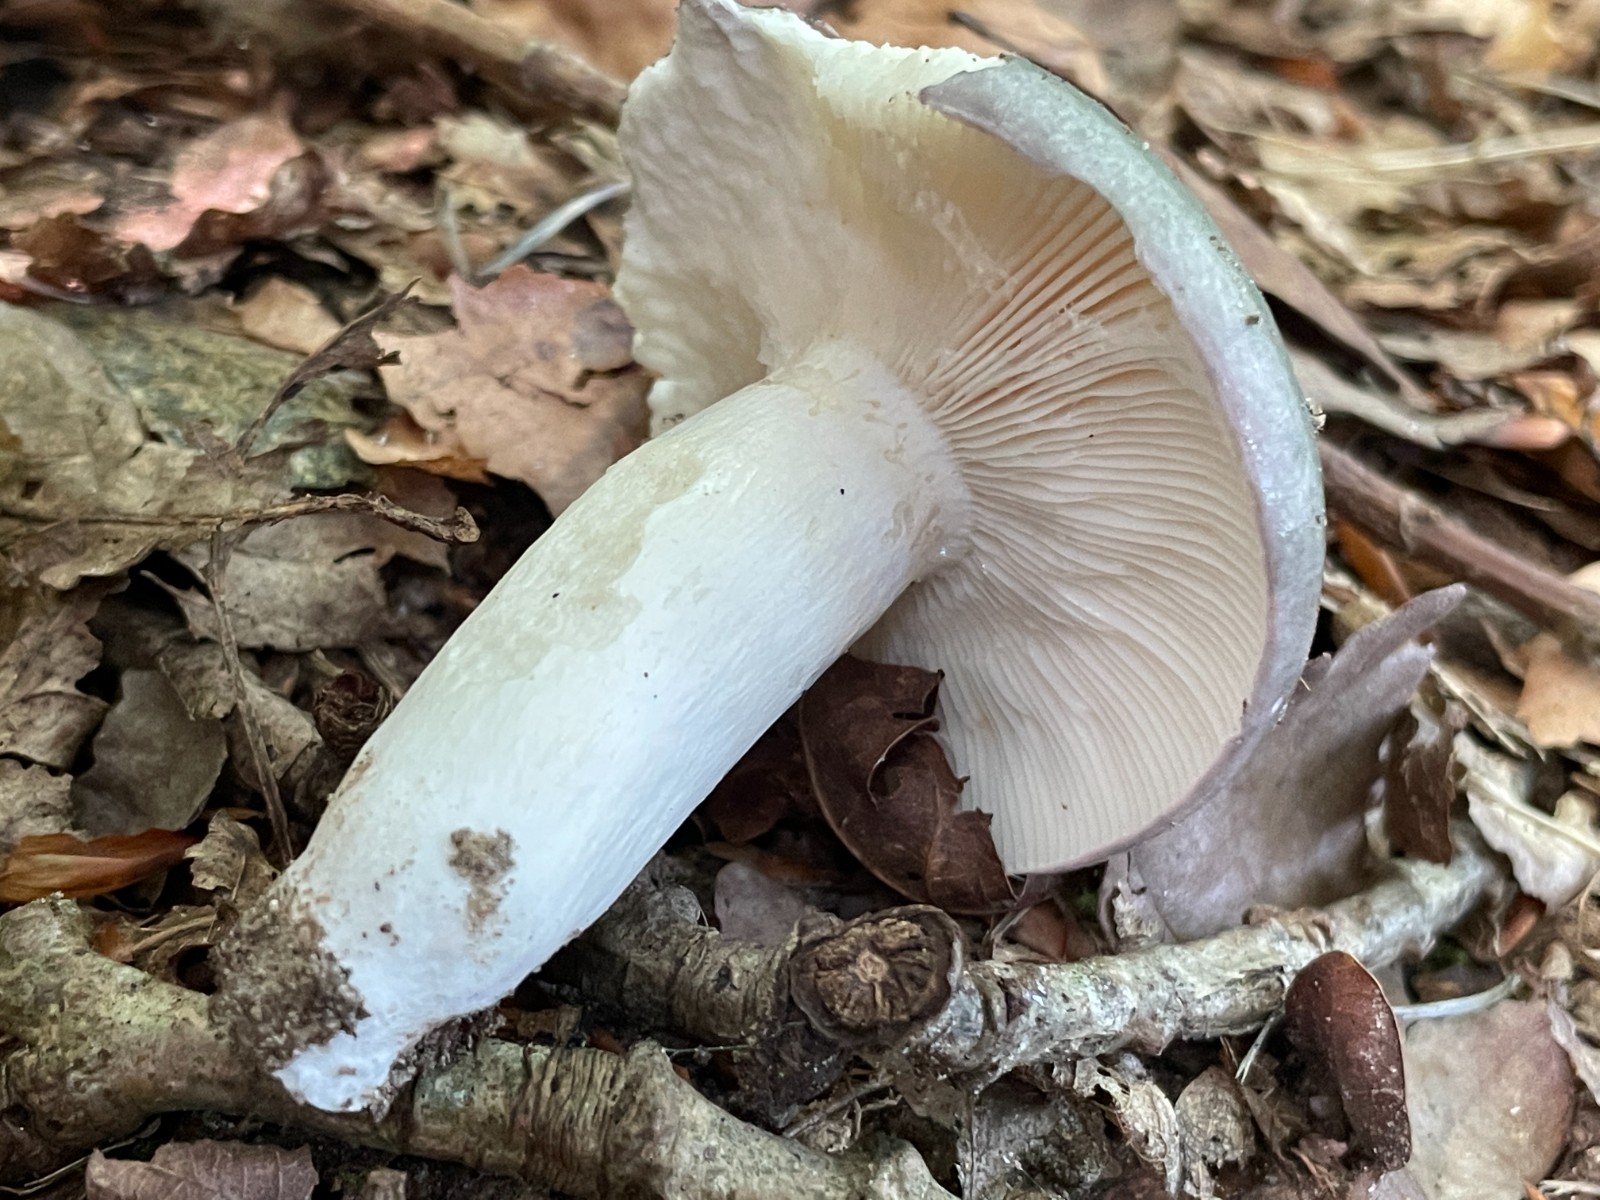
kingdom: Fungi
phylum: Basidiomycota
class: Agaricomycetes
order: Russulales
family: Russulaceae
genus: Russula
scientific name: Russula cyanoxantha
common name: broget skørhat
